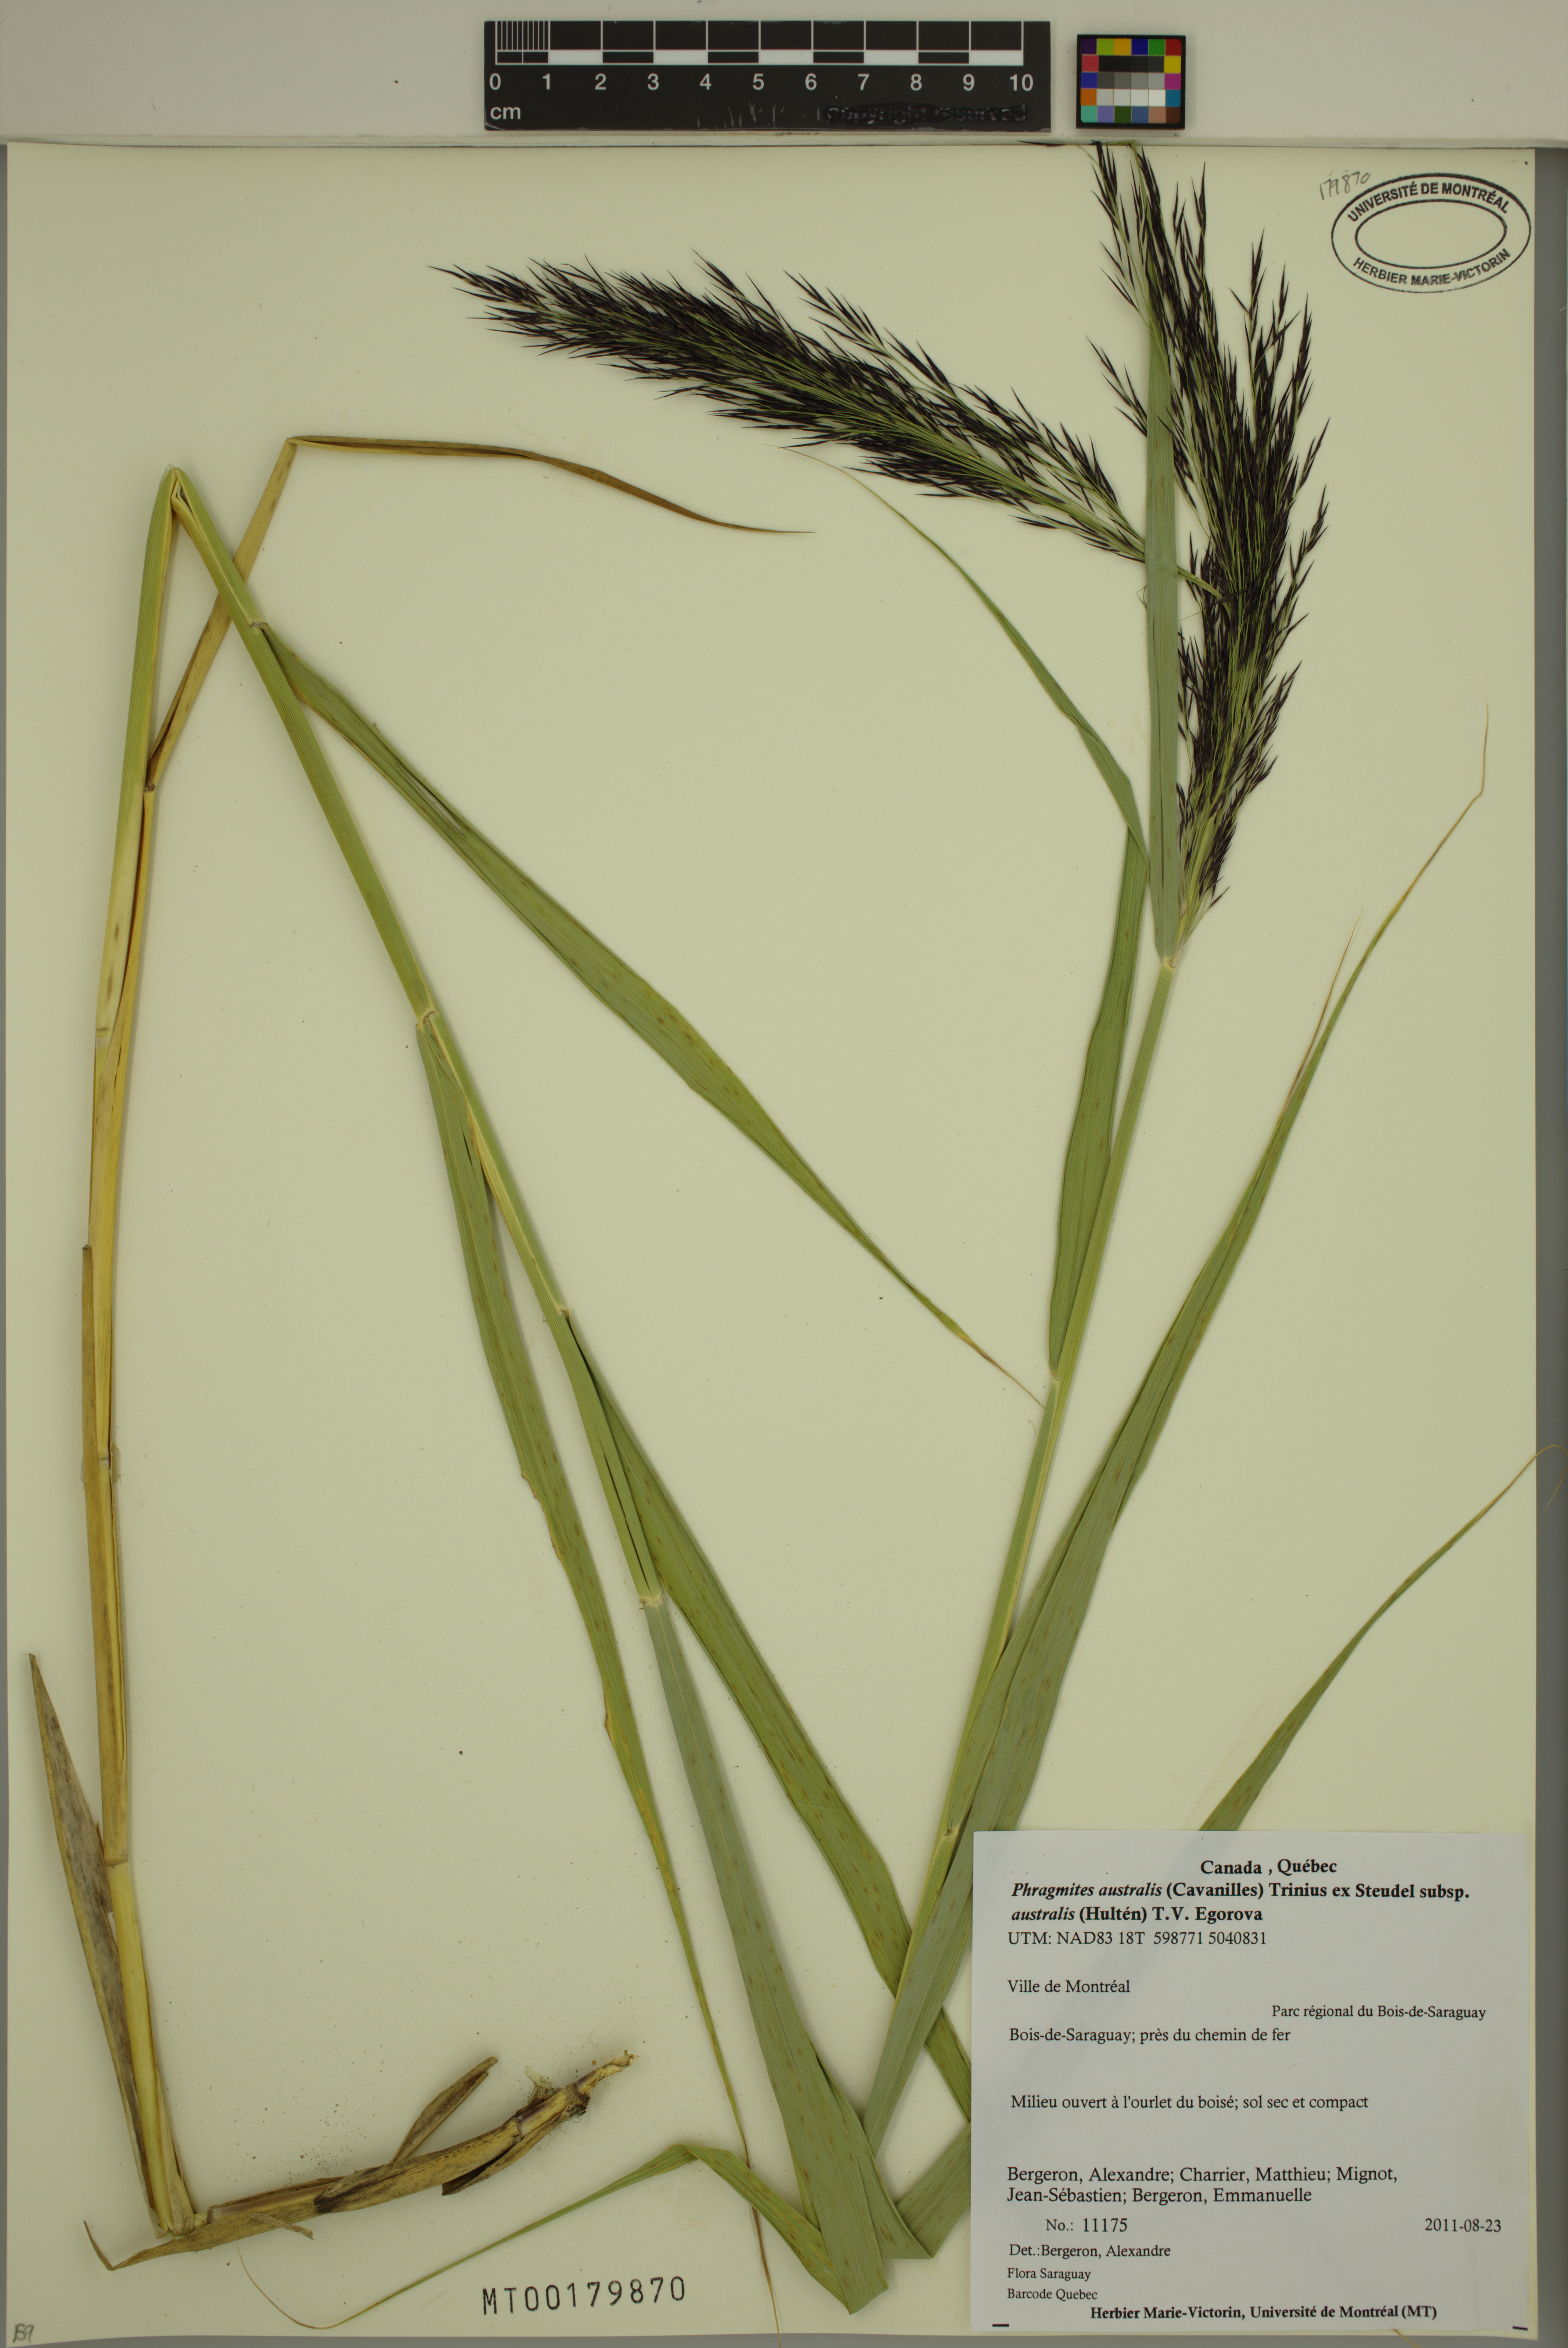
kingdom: Plantae
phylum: Tracheophyta
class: Liliopsida
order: Poales
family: Poaceae
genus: Phragmites
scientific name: Phragmites australis
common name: Common reed
